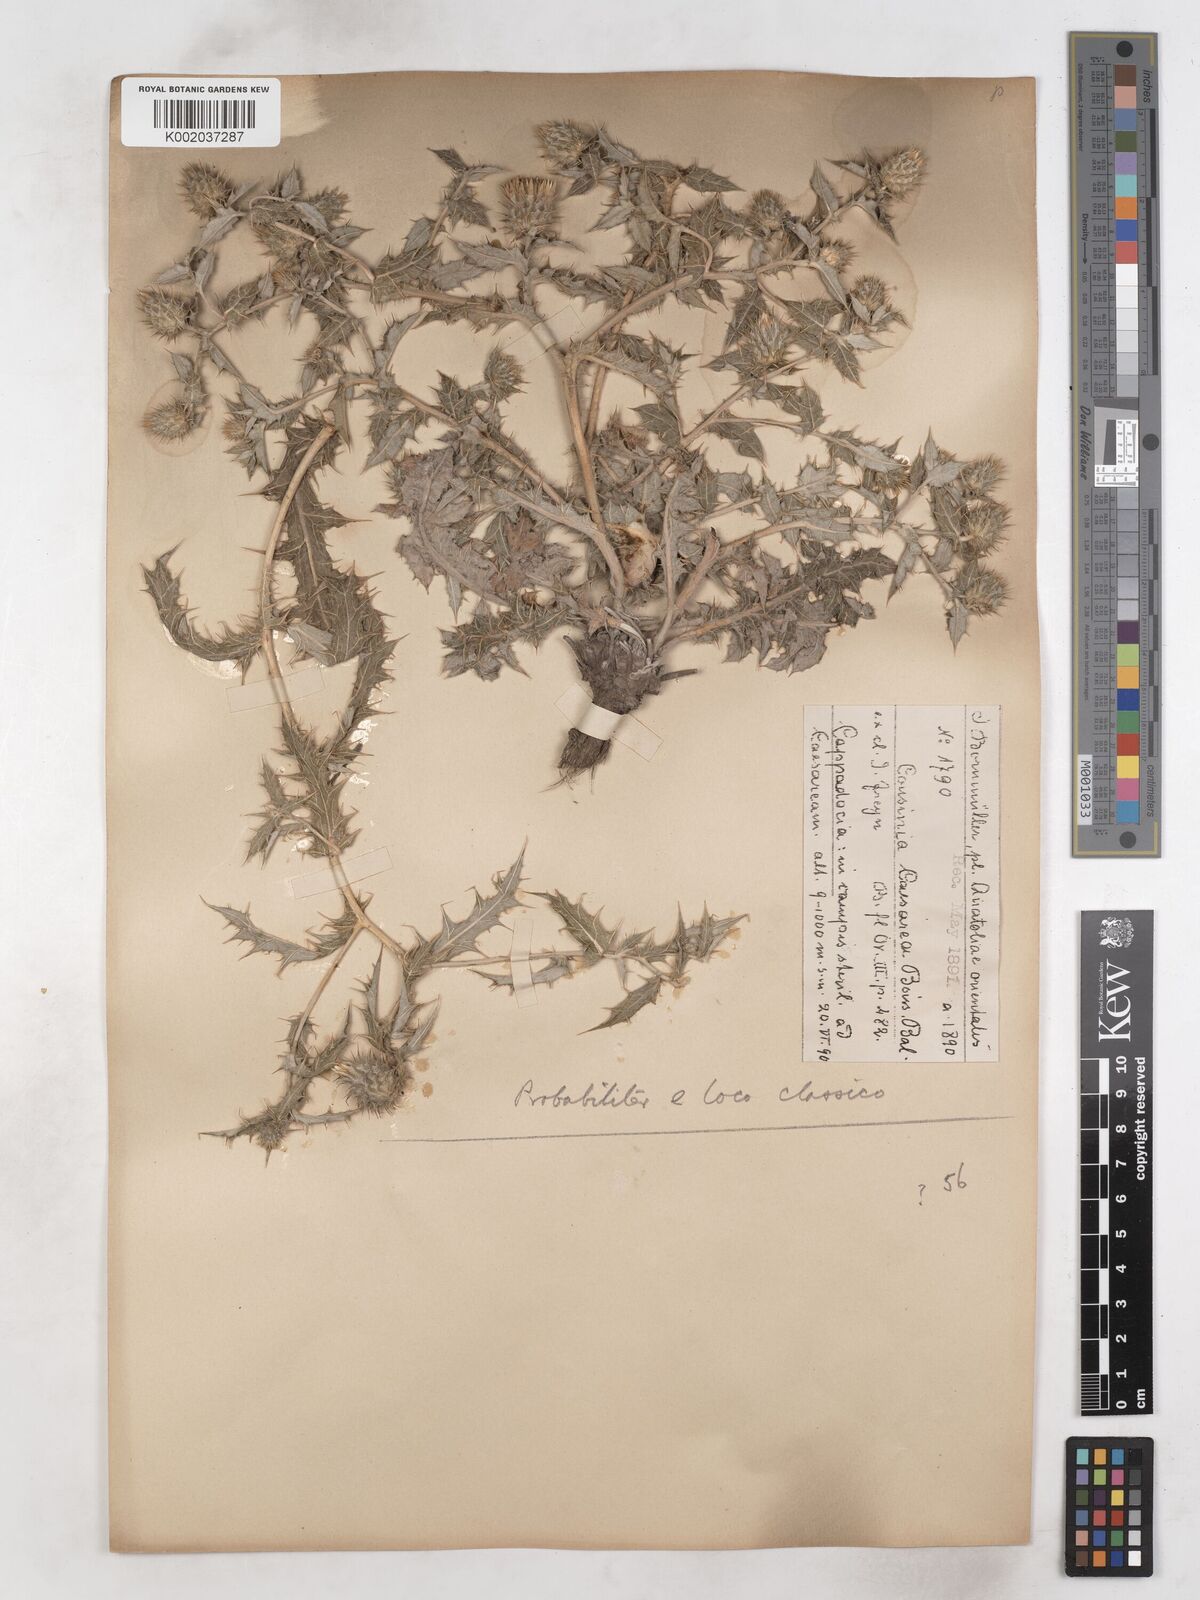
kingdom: Plantae
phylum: Tracheophyta
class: Magnoliopsida
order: Asterales
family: Asteraceae
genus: Cousinia
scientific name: Cousinia caesarea
